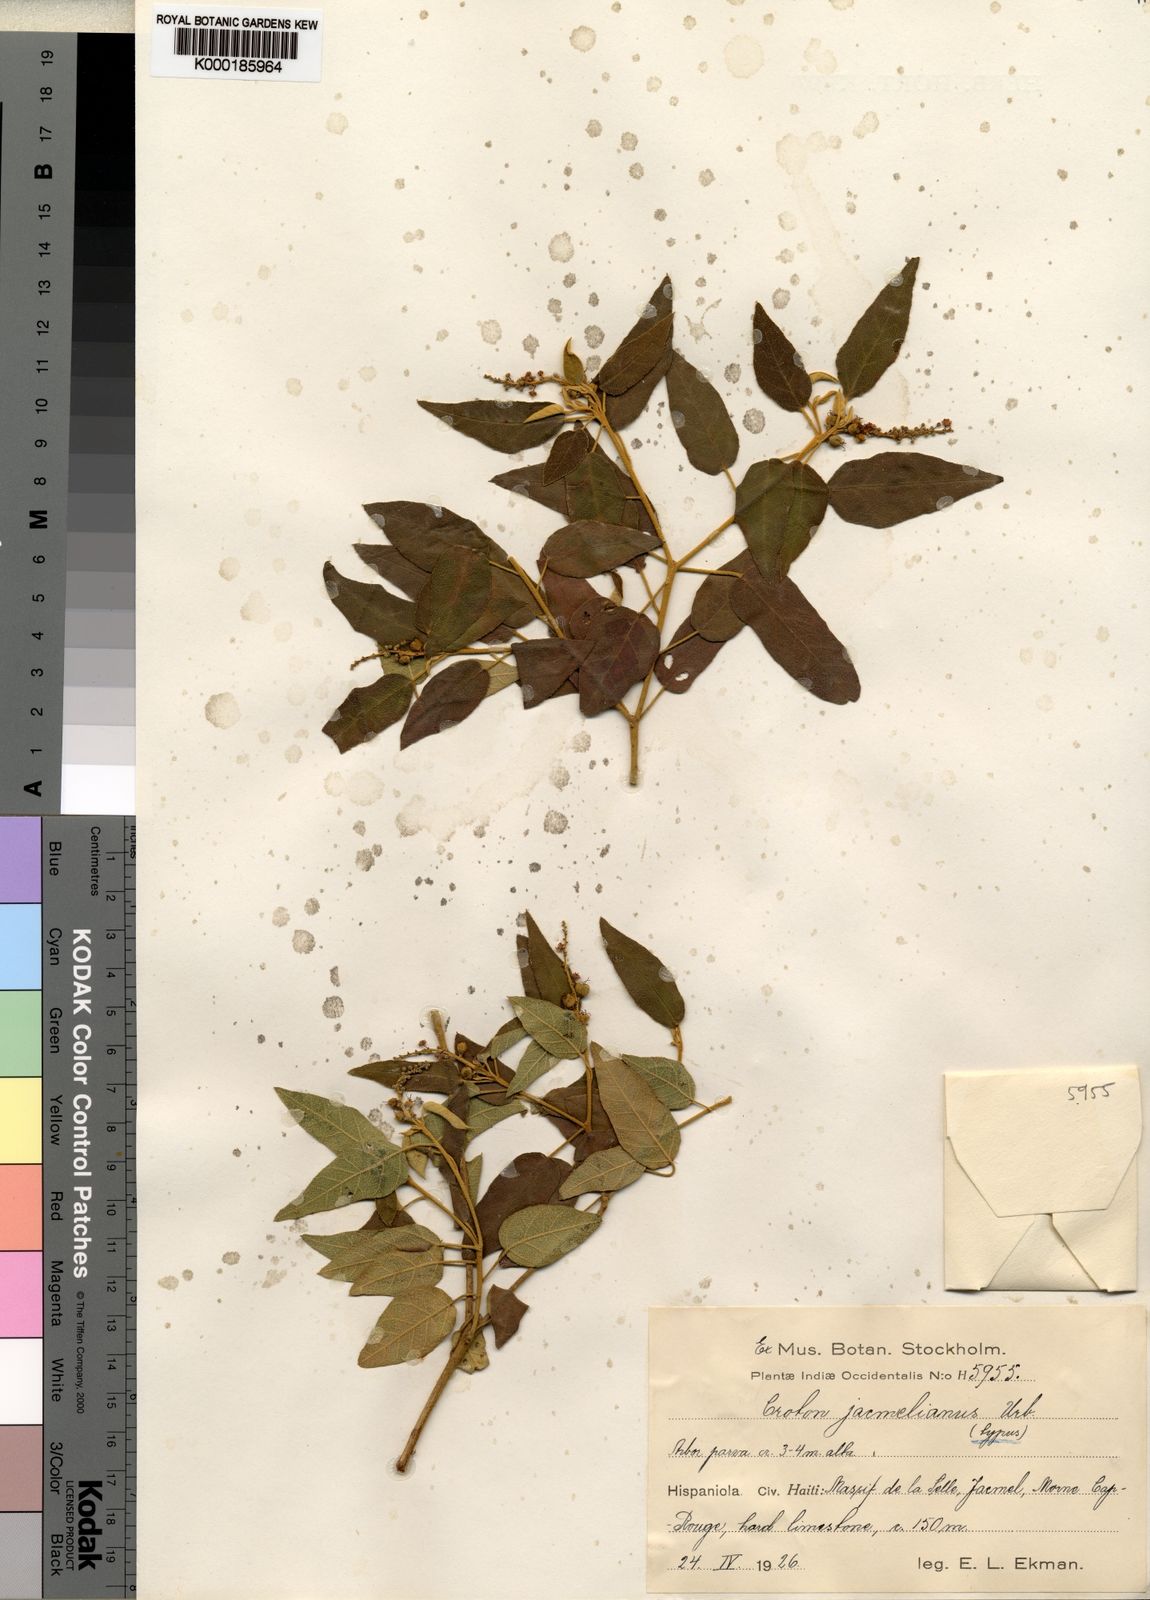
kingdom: Plantae
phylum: Tracheophyta
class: Magnoliopsida
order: Malpighiales
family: Euphorbiaceae
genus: Croton
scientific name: Croton jacmelianus
